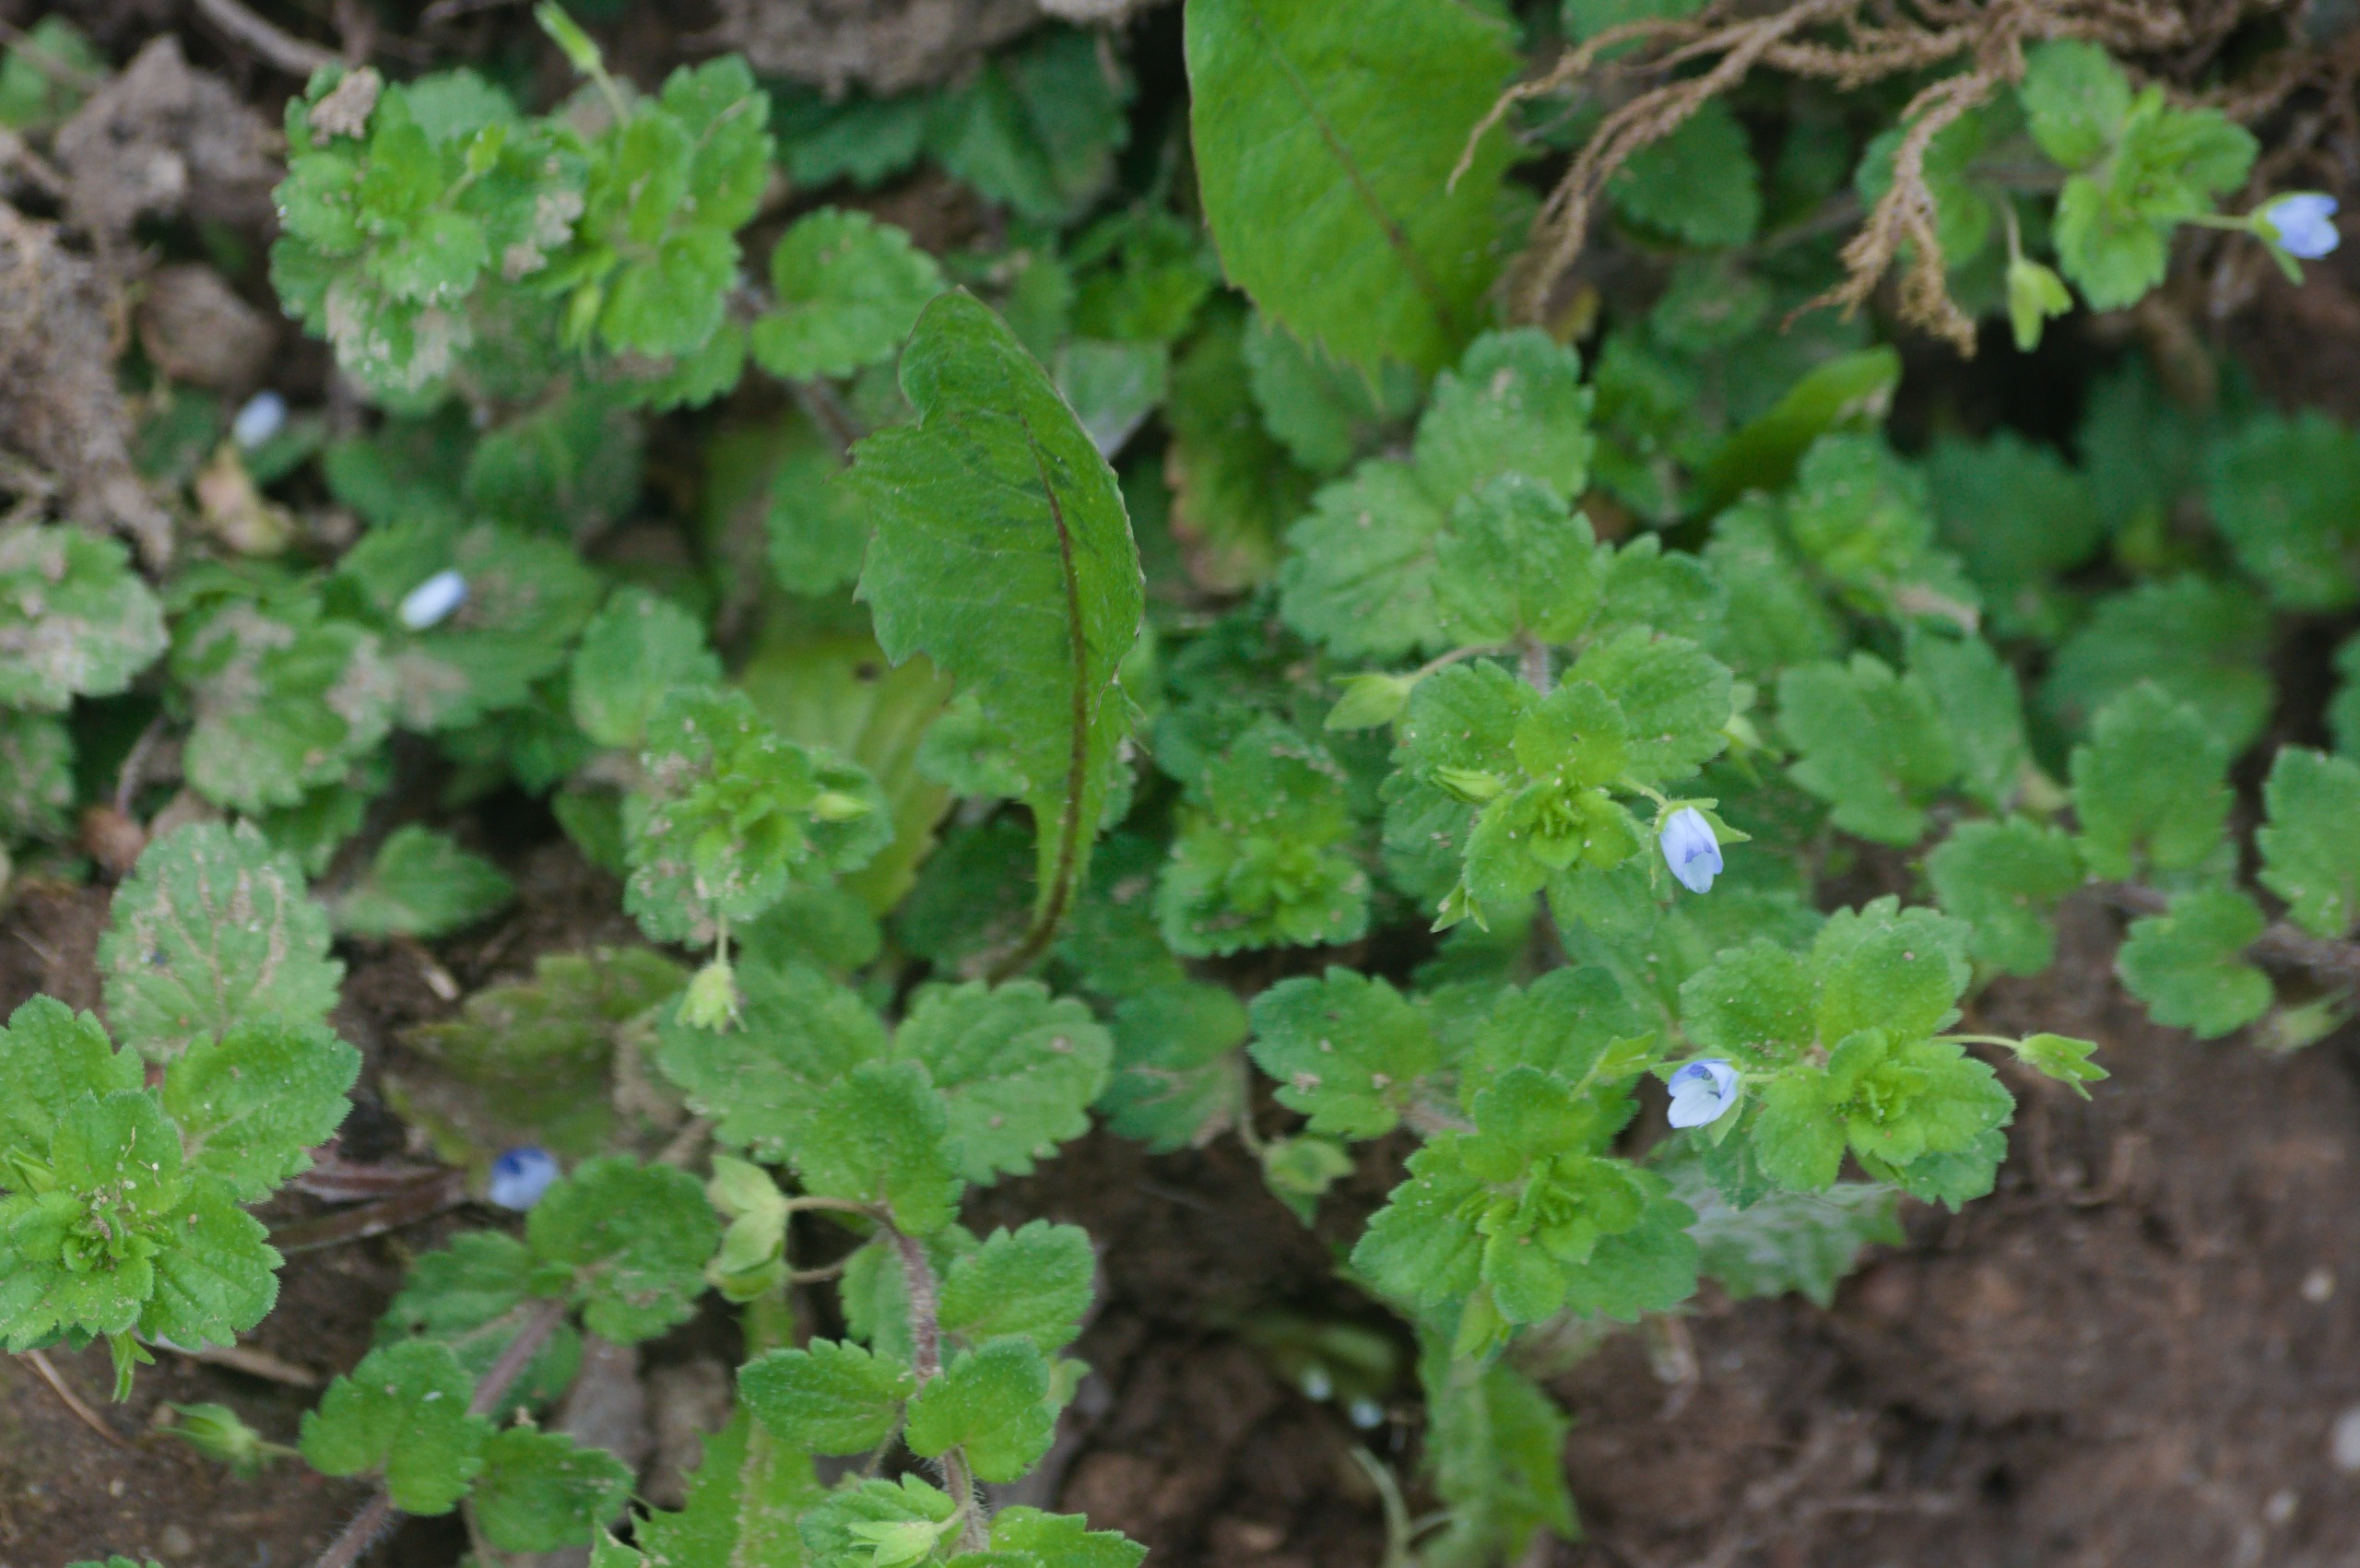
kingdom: Plantae
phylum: Tracheophyta
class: Magnoliopsida
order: Lamiales
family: Plantaginaceae
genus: Veronica
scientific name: Veronica persica
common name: Storkronet ærenpris
